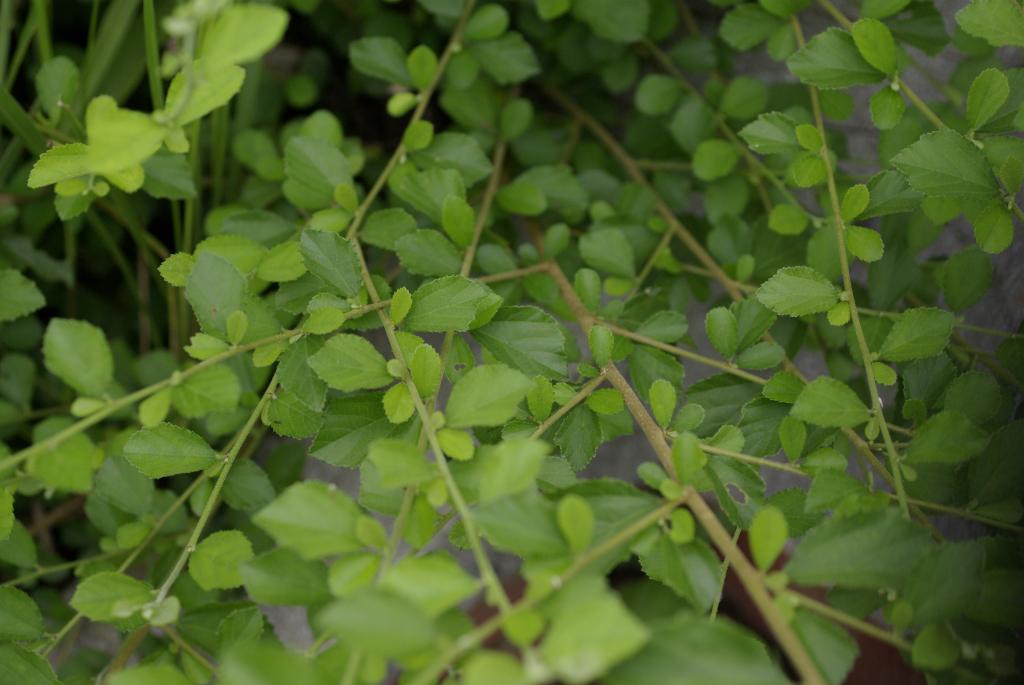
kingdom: Plantae
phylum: Tracheophyta
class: Magnoliopsida
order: Malvales
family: Malvaceae
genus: Grewia
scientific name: Grewia piscatorum
